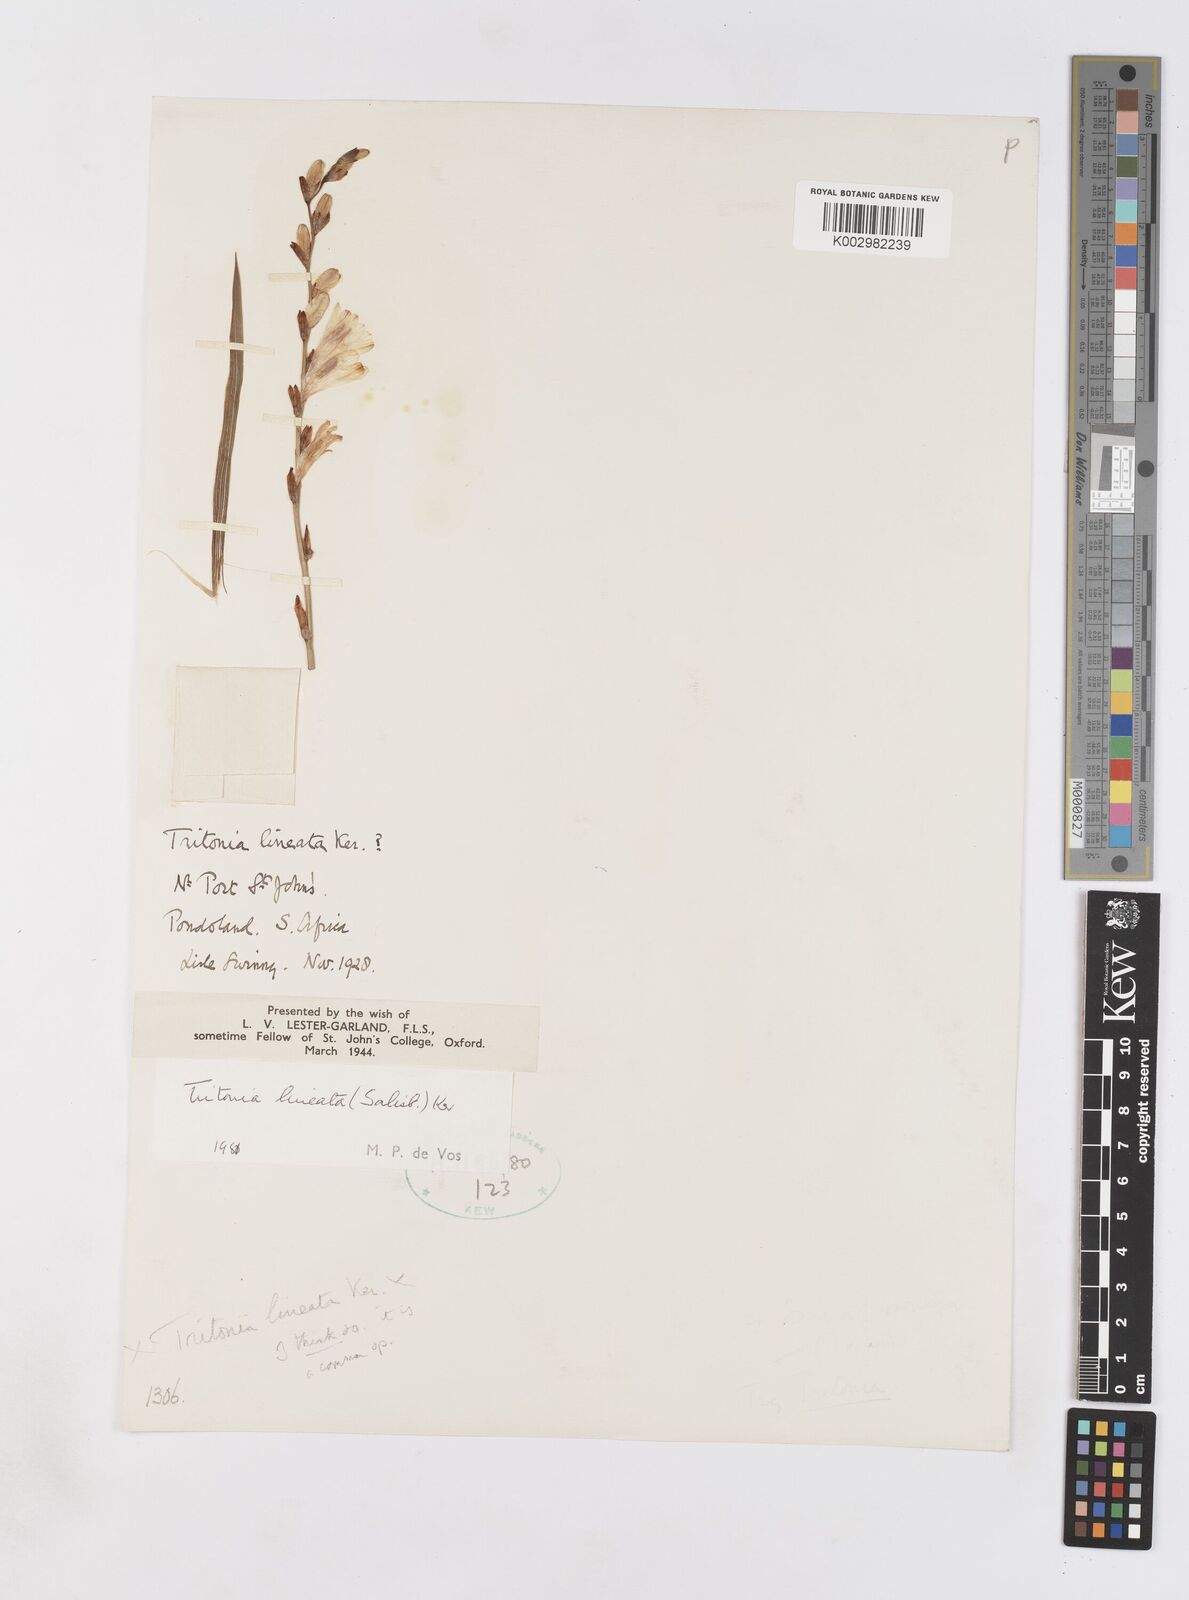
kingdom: Plantae
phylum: Tracheophyta
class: Liliopsida
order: Asparagales
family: Iridaceae
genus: Tritonia
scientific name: Tritonia gladiolaris
